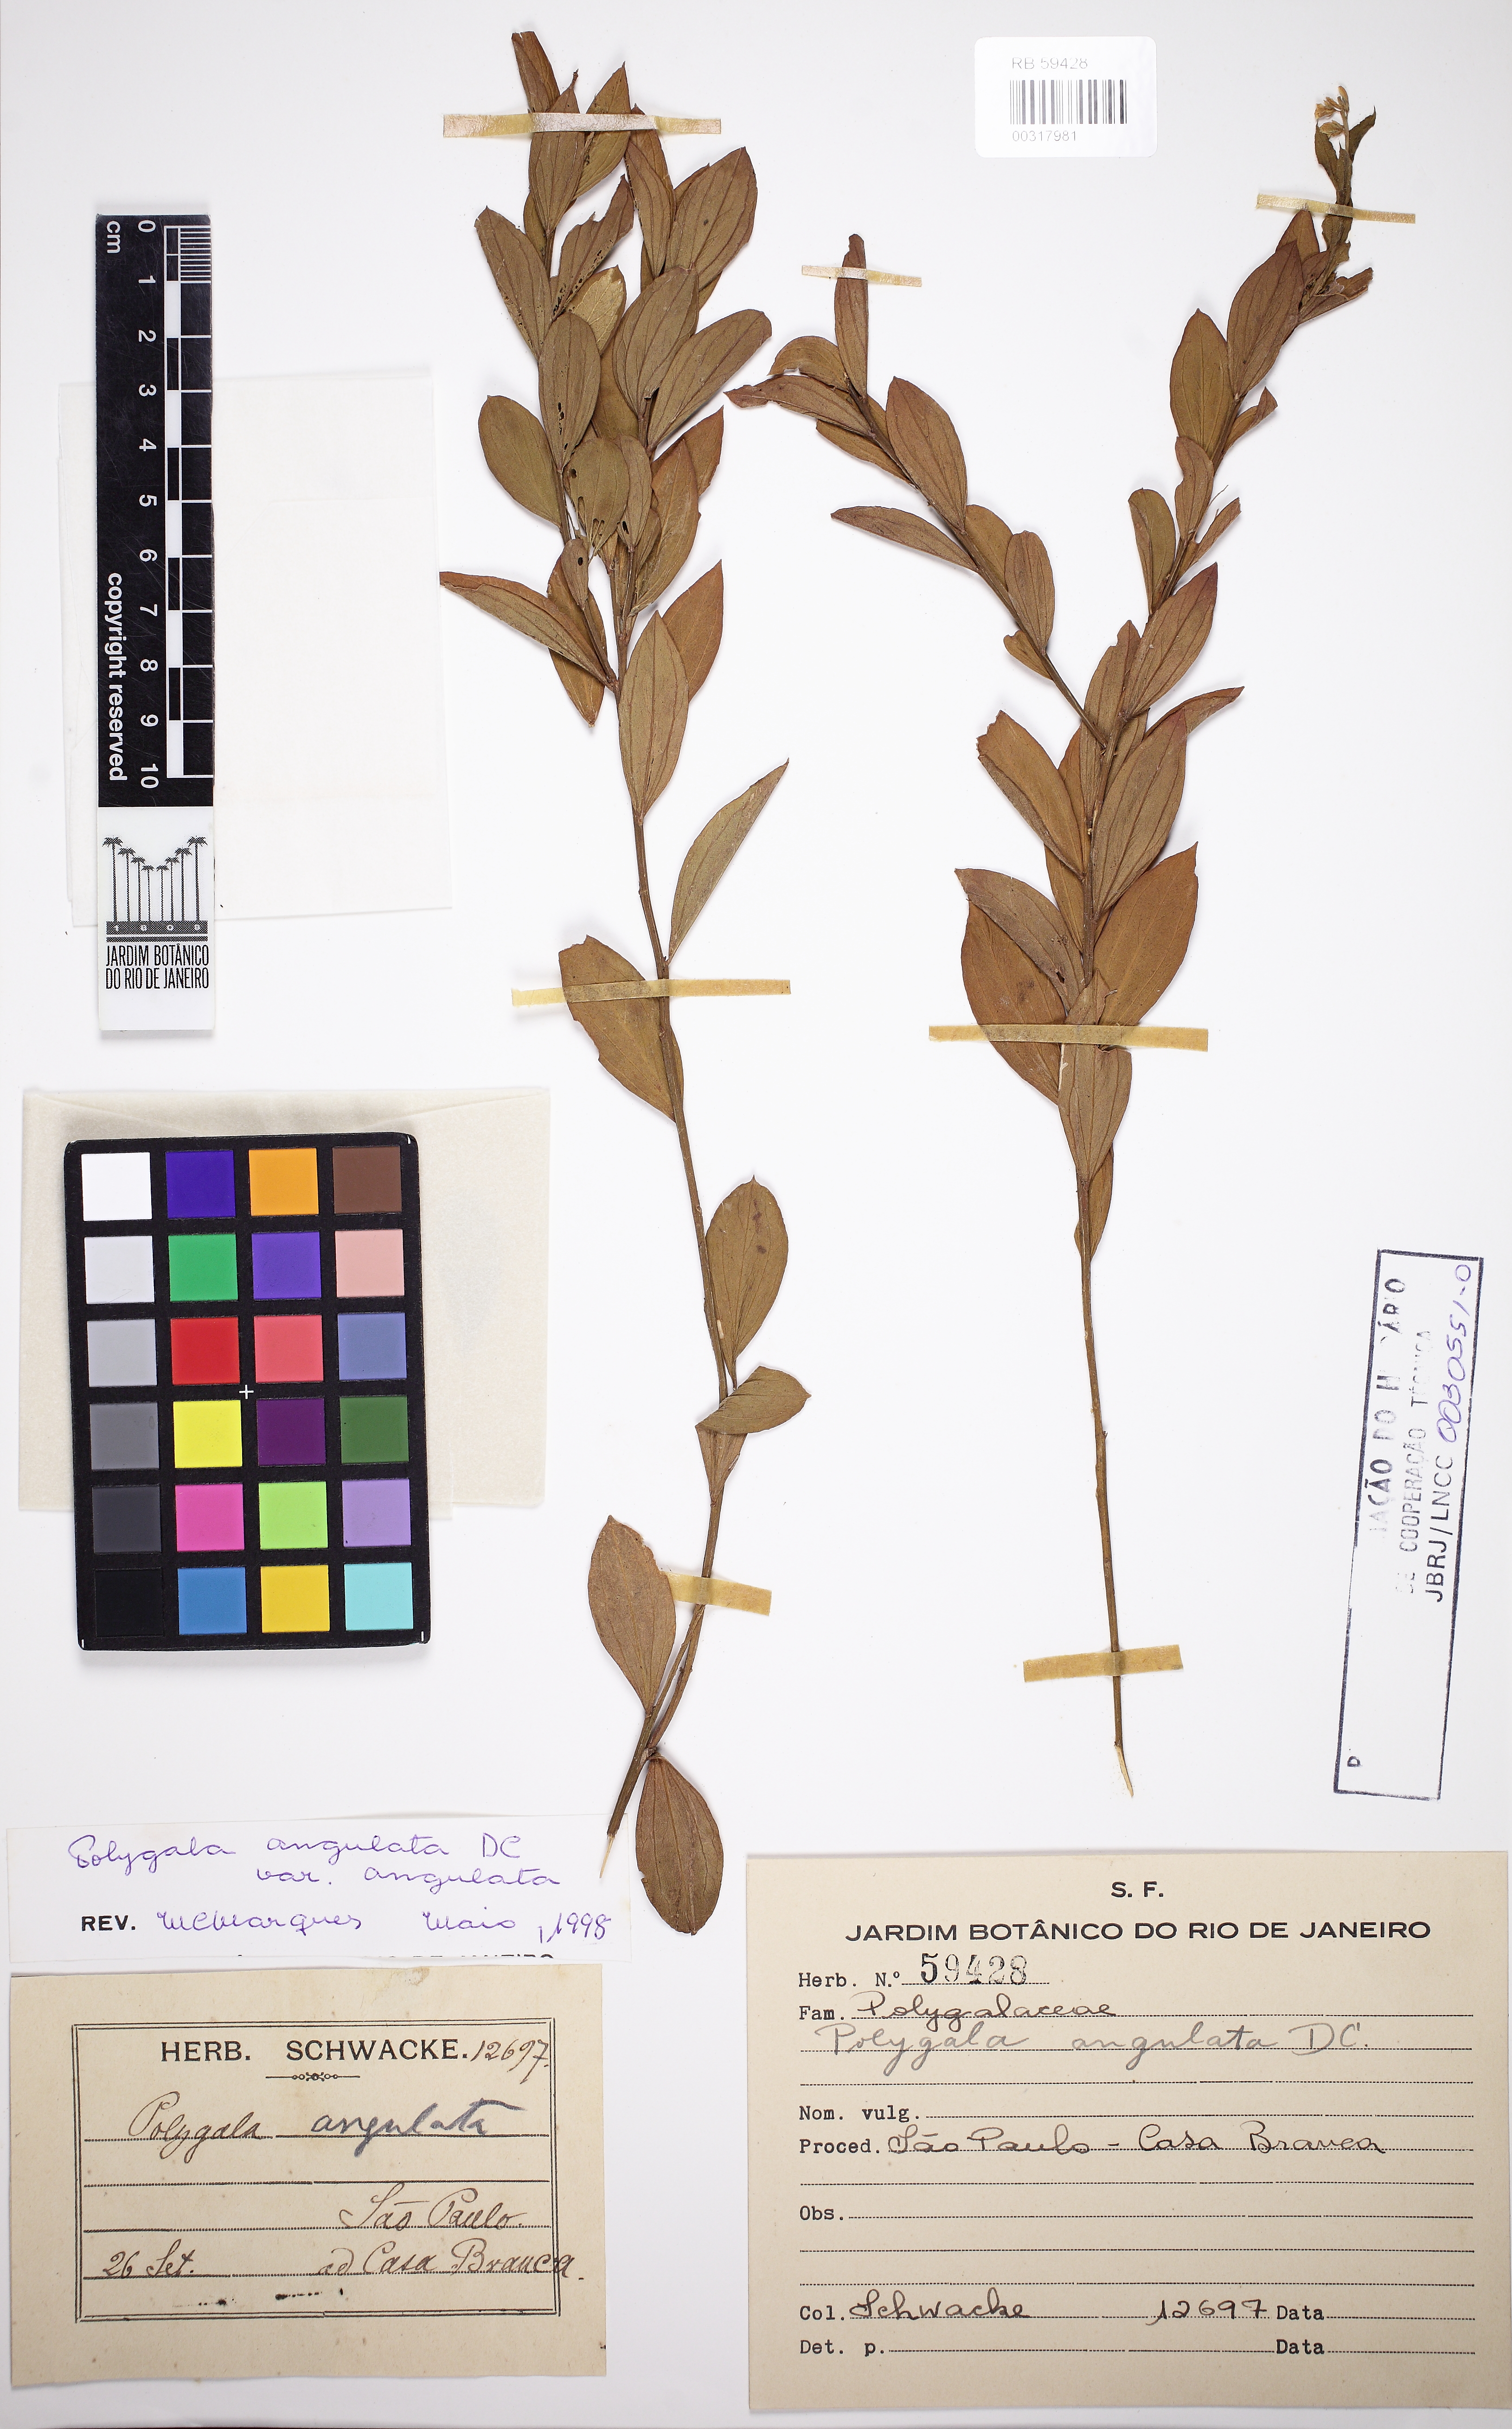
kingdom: Plantae
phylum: Tracheophyta
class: Magnoliopsida
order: Fabales
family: Polygalaceae
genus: Polygala
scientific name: Polygala poaya
